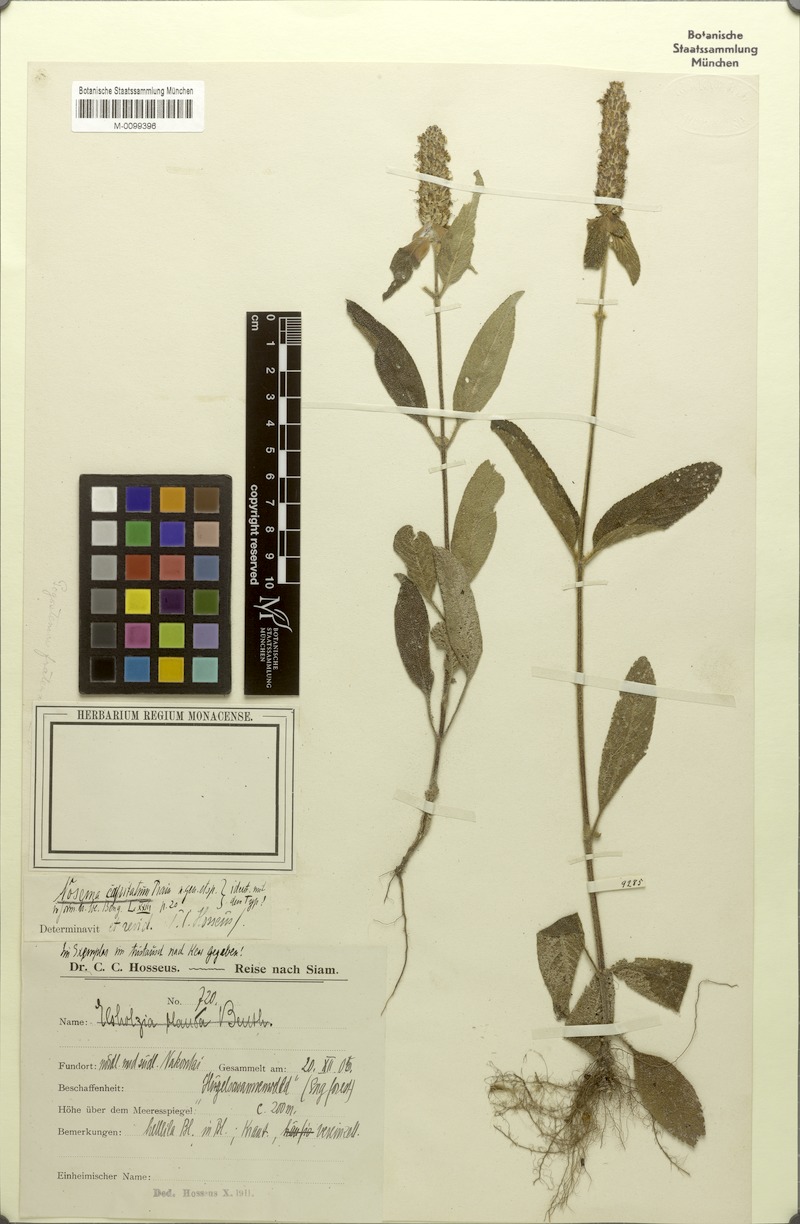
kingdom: Plantae
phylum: Tracheophyta
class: Magnoliopsida
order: Lamiales
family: Lamiaceae
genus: Platostoma
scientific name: Platostoma cochinchinense
